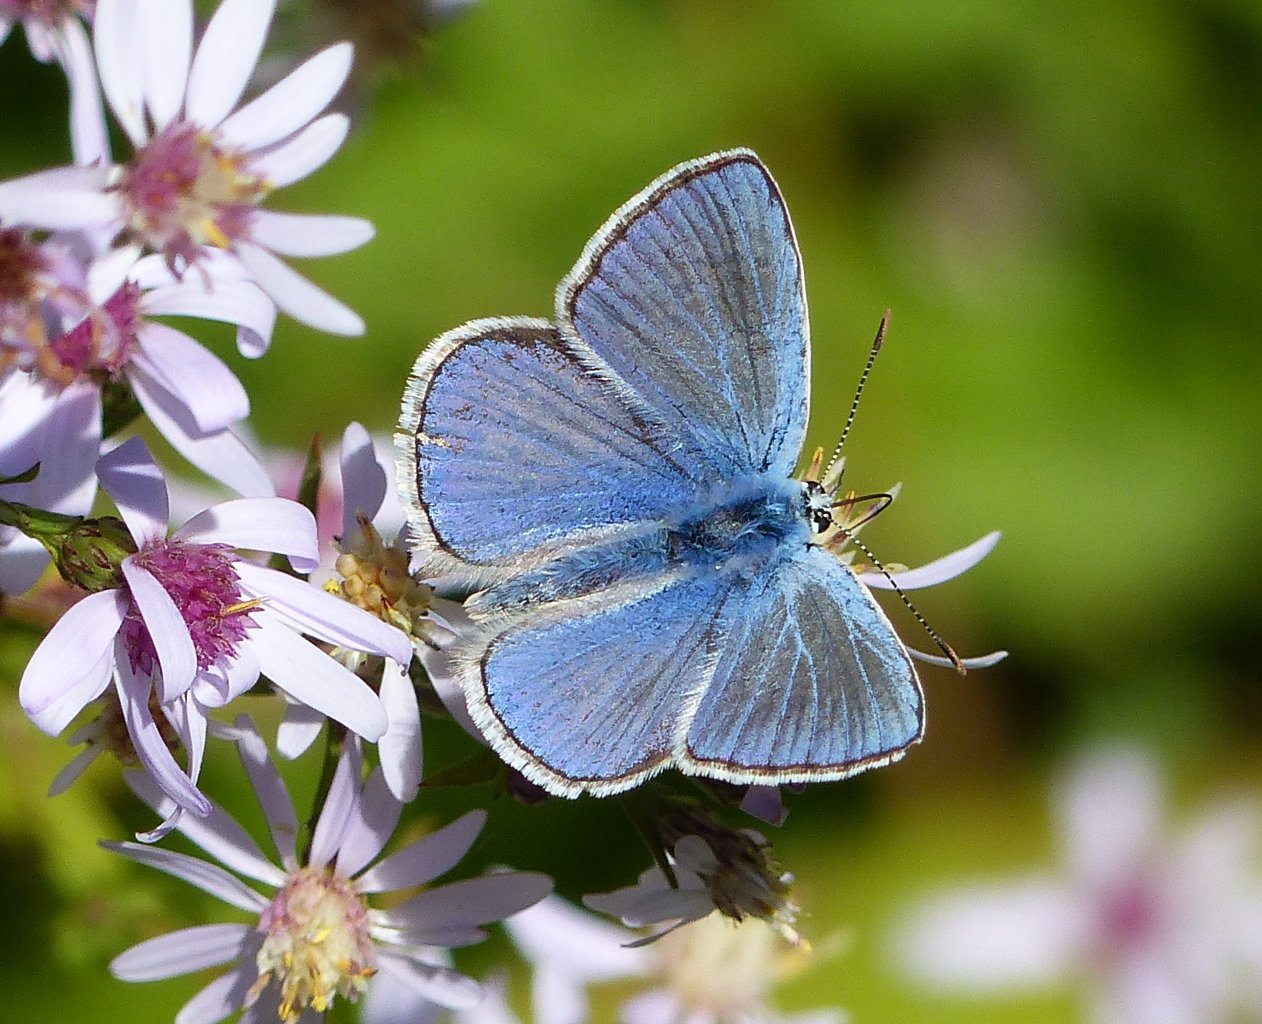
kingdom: Animalia
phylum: Arthropoda
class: Insecta
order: Lepidoptera
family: Lycaenidae
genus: Polyommatus
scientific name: Polyommatus icarus
